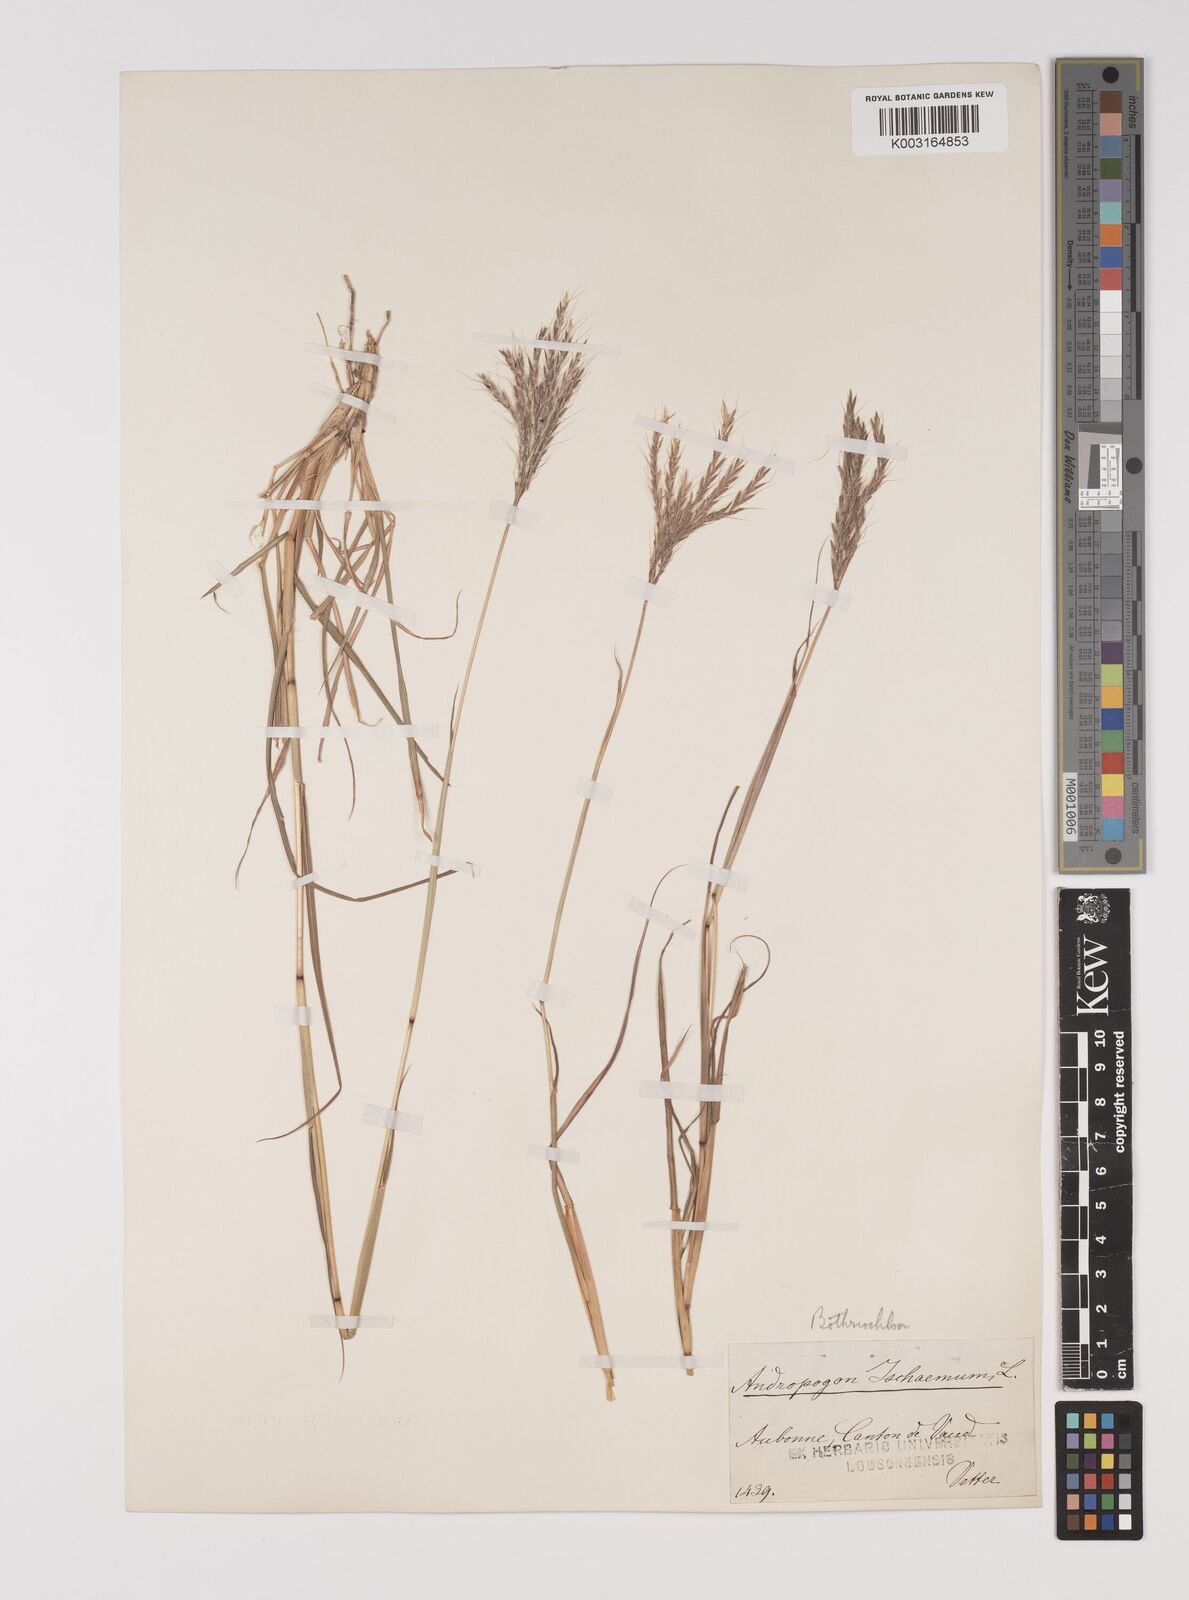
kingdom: Plantae
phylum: Tracheophyta
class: Liliopsida
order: Poales
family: Poaceae
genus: Bothriochloa
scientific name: Bothriochloa ischaemum
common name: Yellow bluestem
